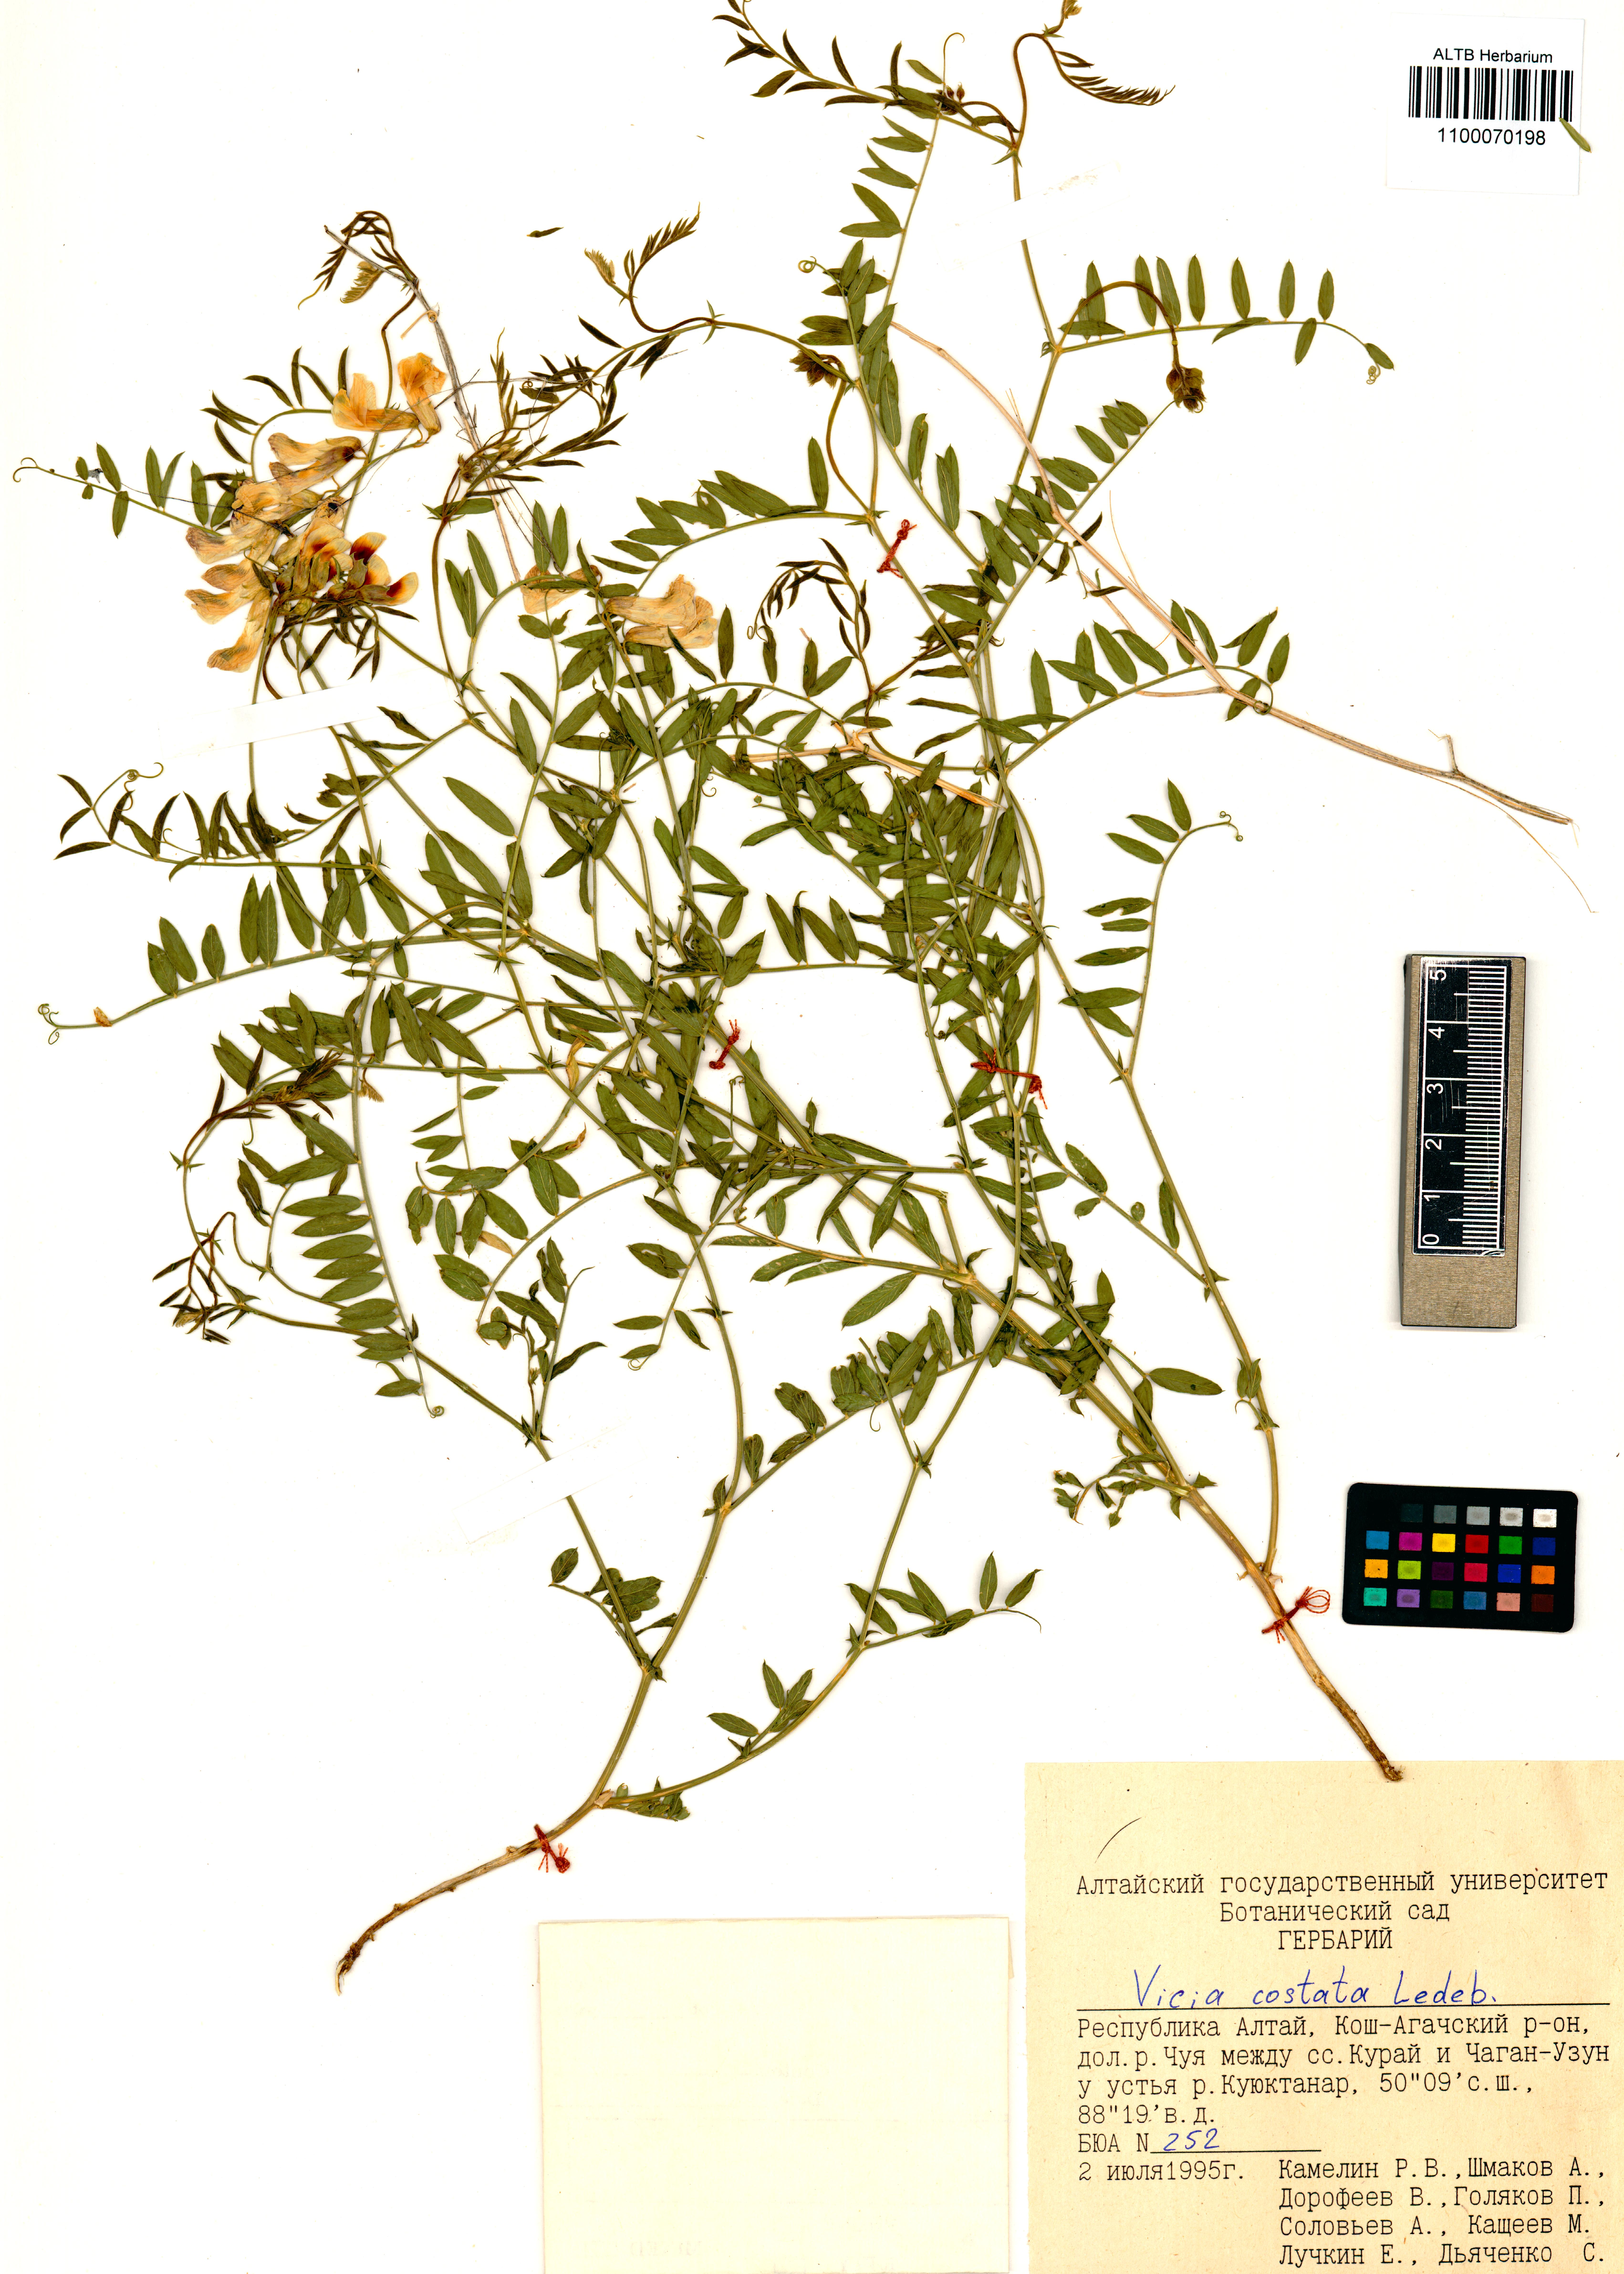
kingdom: Plantae
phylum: Tracheophyta
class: Magnoliopsida
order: Fabales
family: Fabaceae
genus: Vicia
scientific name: Vicia costata
